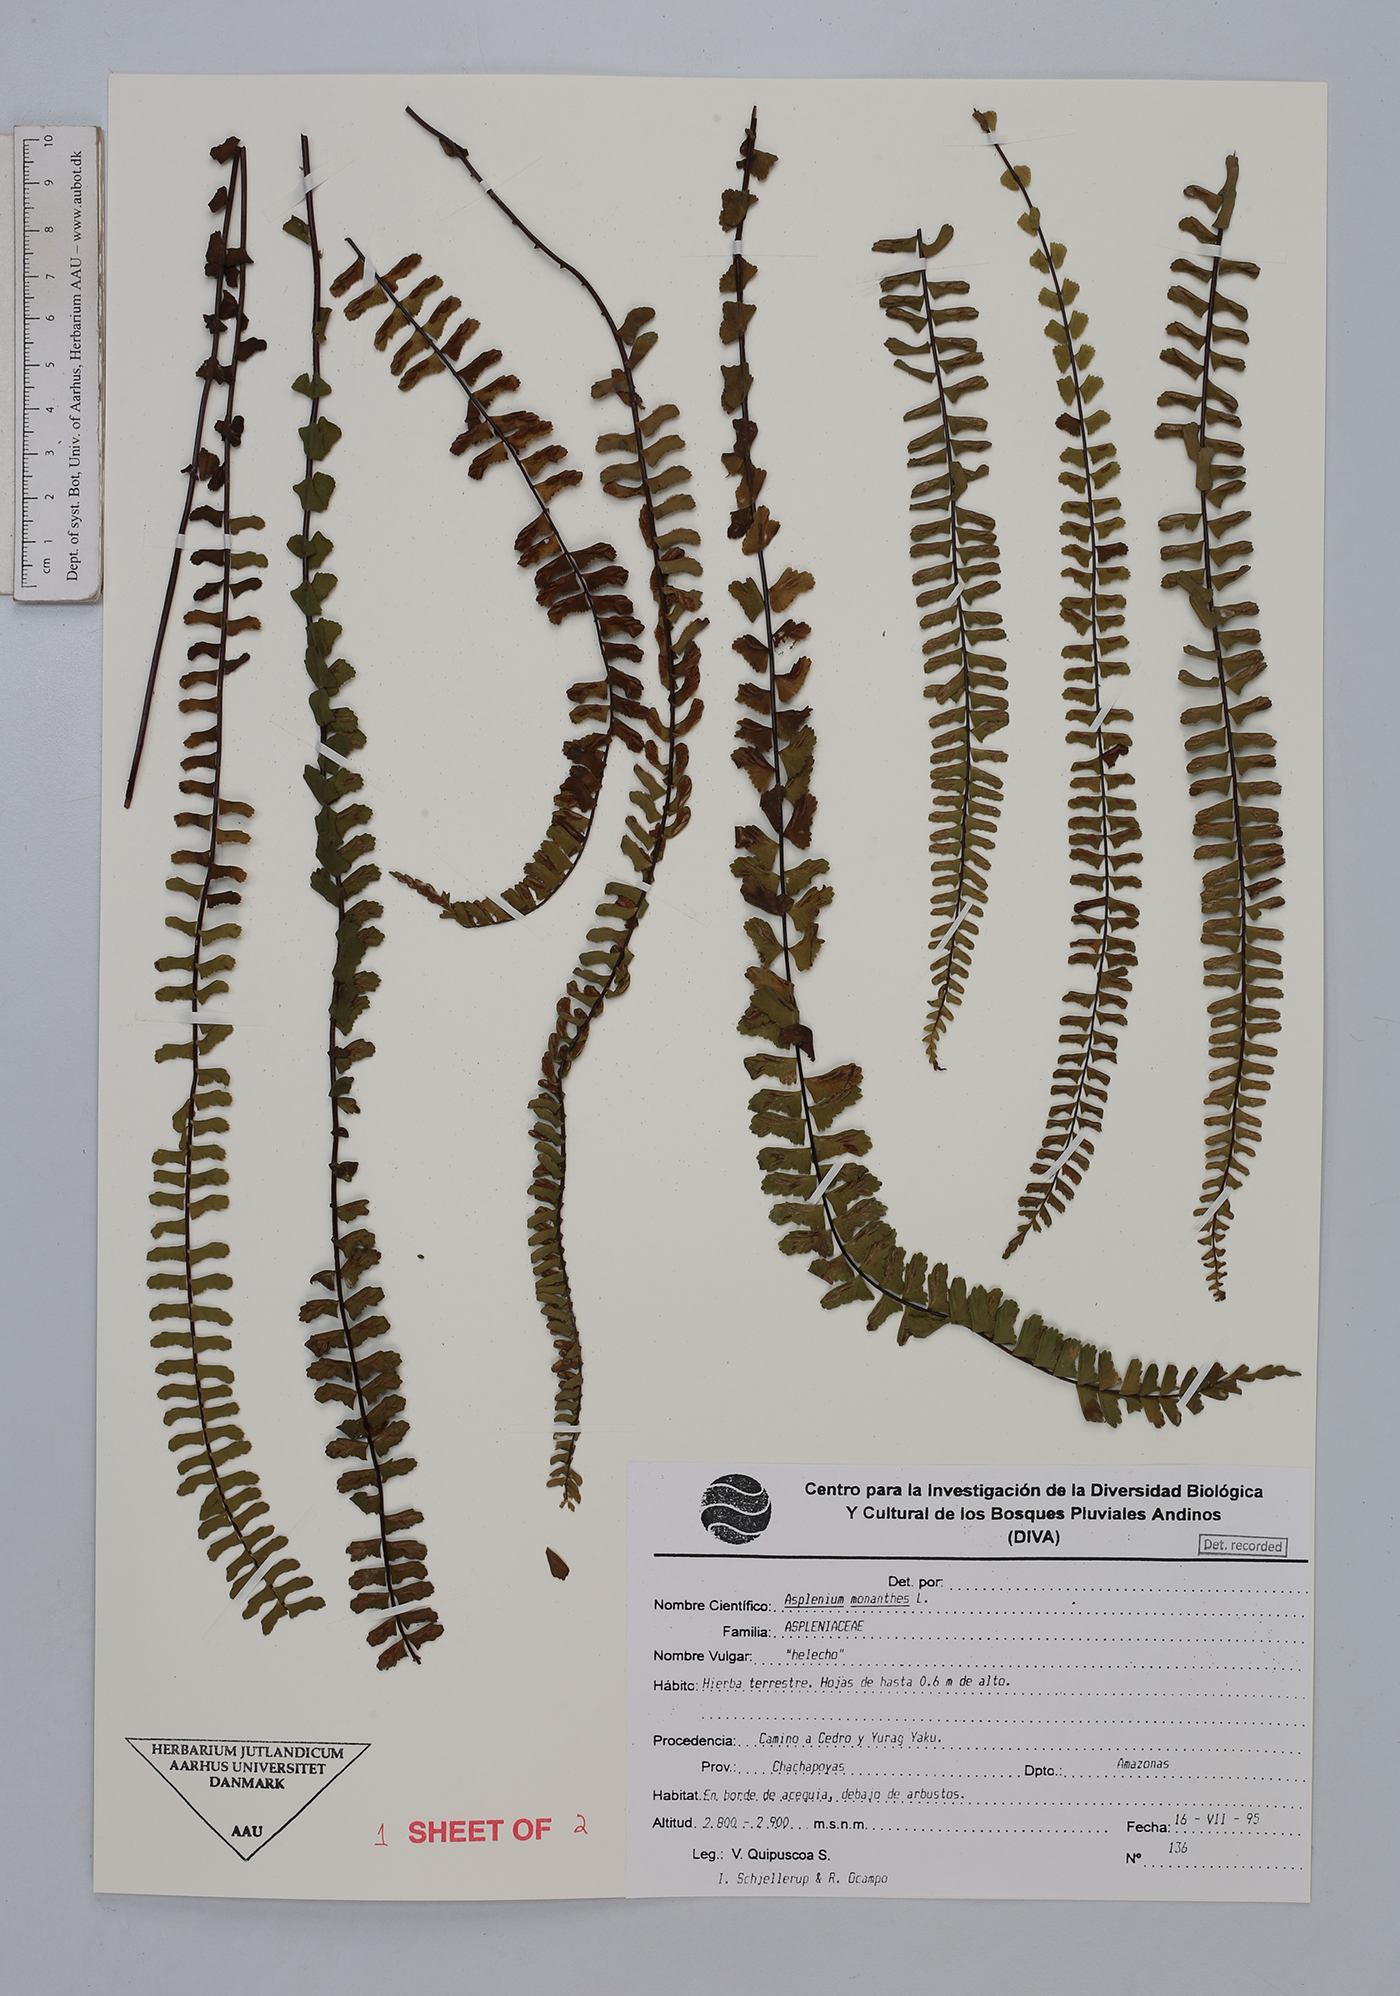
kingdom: Plantae
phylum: Tracheophyta
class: Polypodiopsida
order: Polypodiales
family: Aspleniaceae
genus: Asplenium
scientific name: Asplenium monanthes
